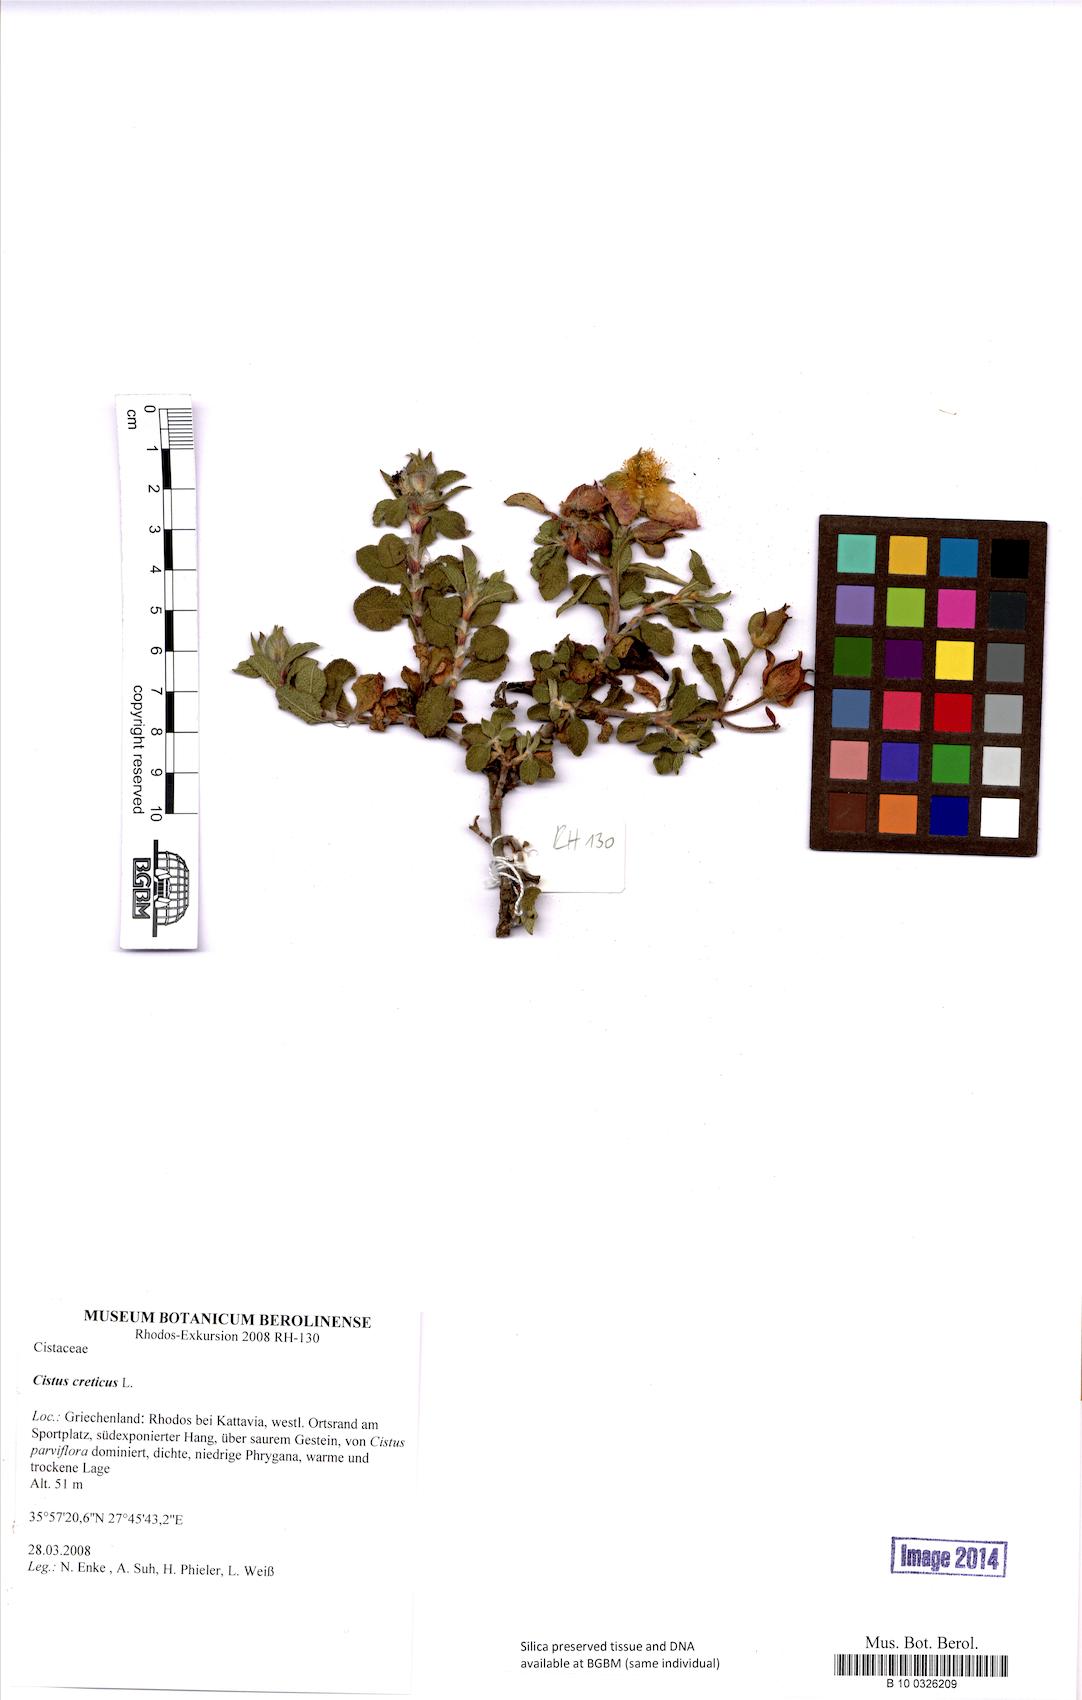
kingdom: Plantae
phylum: Tracheophyta
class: Magnoliopsida
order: Malvales
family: Cistaceae
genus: Cistus
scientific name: Cistus creticus
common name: Cretan rockrose
